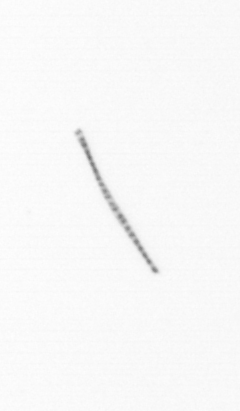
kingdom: Chromista
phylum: Ochrophyta
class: Bacillariophyceae
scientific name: Bacillariophyceae
